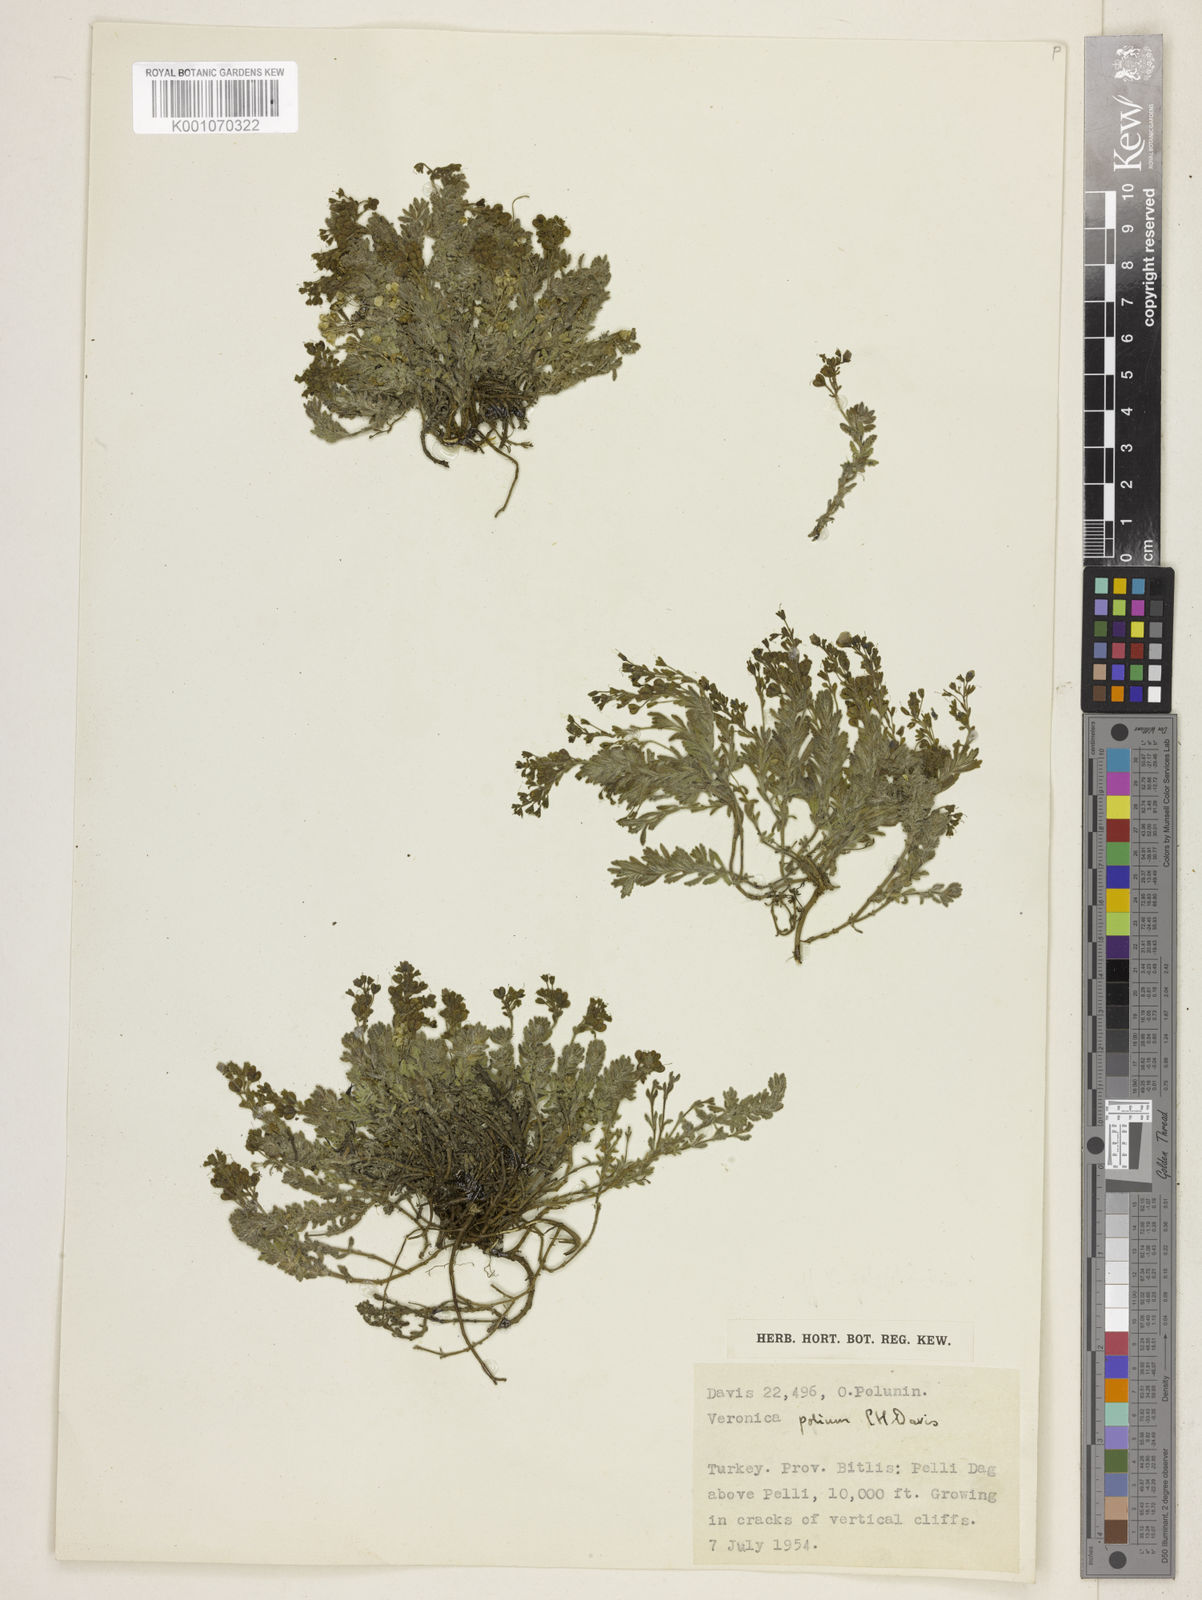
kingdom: Plantae
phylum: Tracheophyta
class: Magnoliopsida
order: Lamiales
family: Plantaginaceae
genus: Veronica
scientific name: Veronica polium
